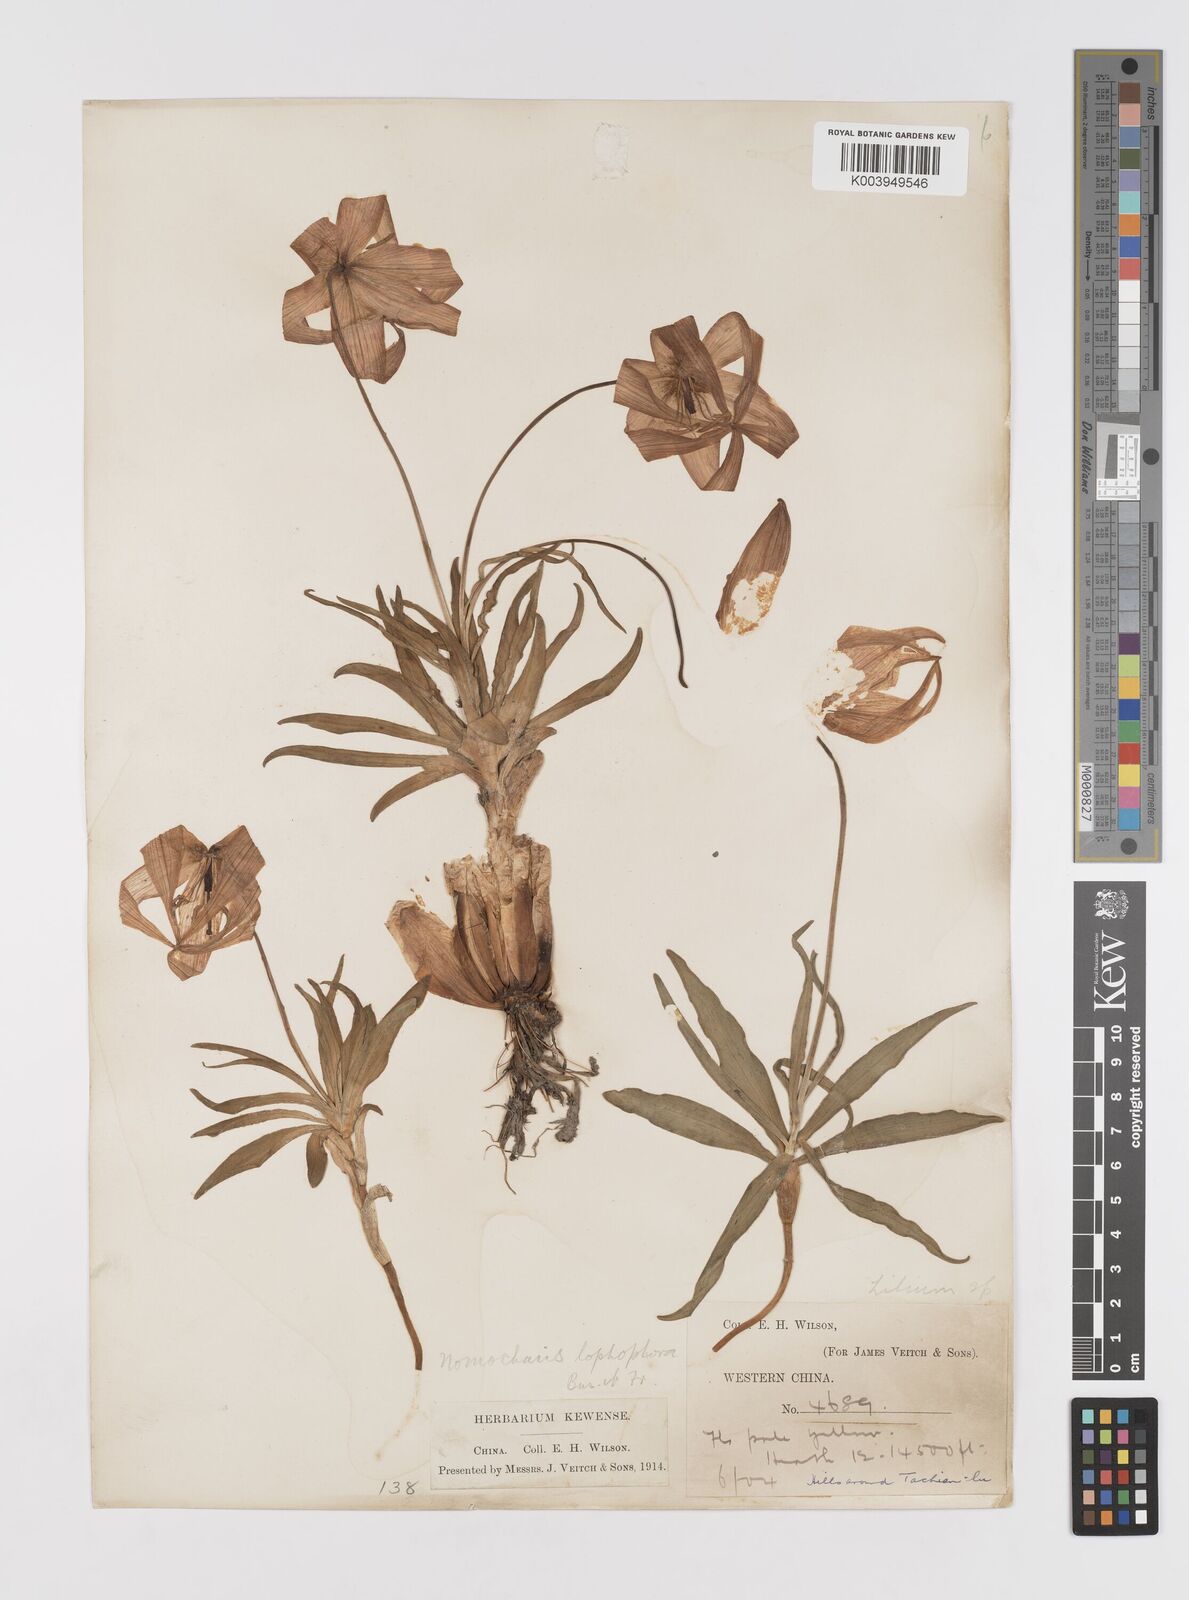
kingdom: Plantae
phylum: Tracheophyta
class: Liliopsida
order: Liliales
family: Liliaceae
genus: Lilium
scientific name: Lilium lophophorum
